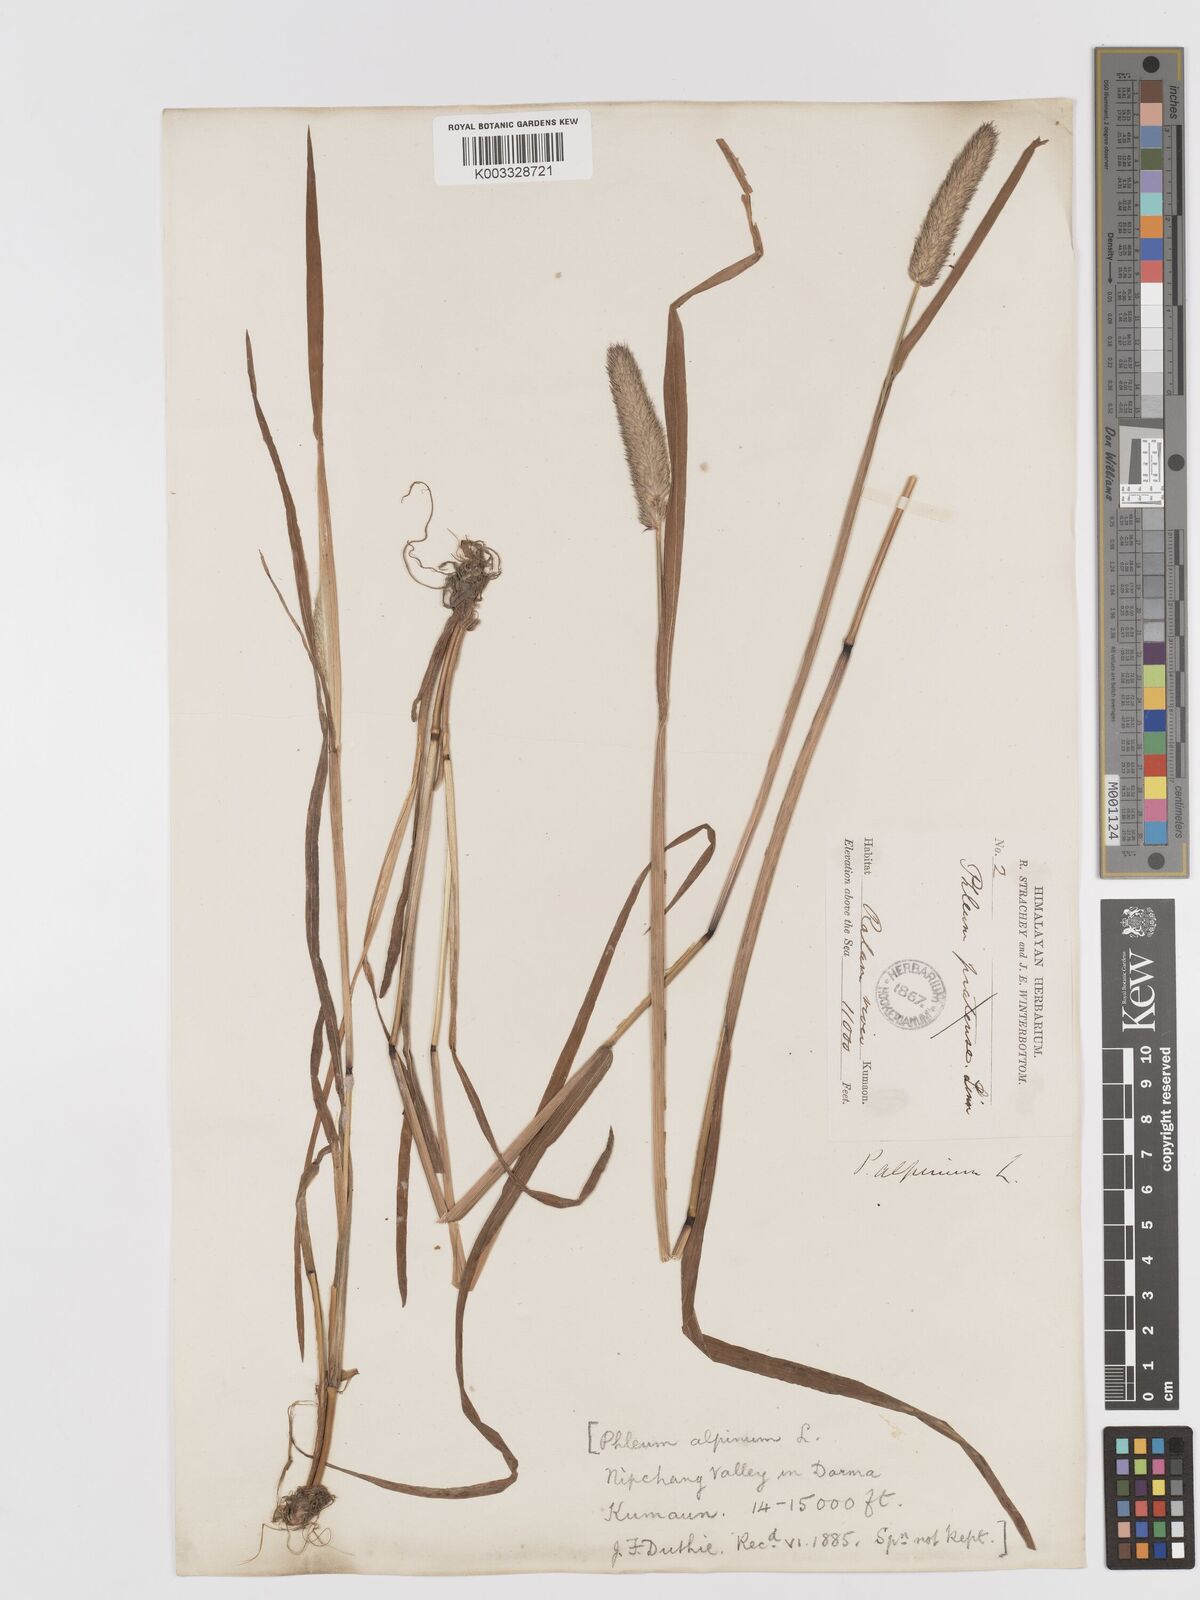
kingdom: Plantae
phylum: Tracheophyta
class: Liliopsida
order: Poales
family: Poaceae
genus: Phleum
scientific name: Phleum alpinum
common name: Alpine cat's-tail
